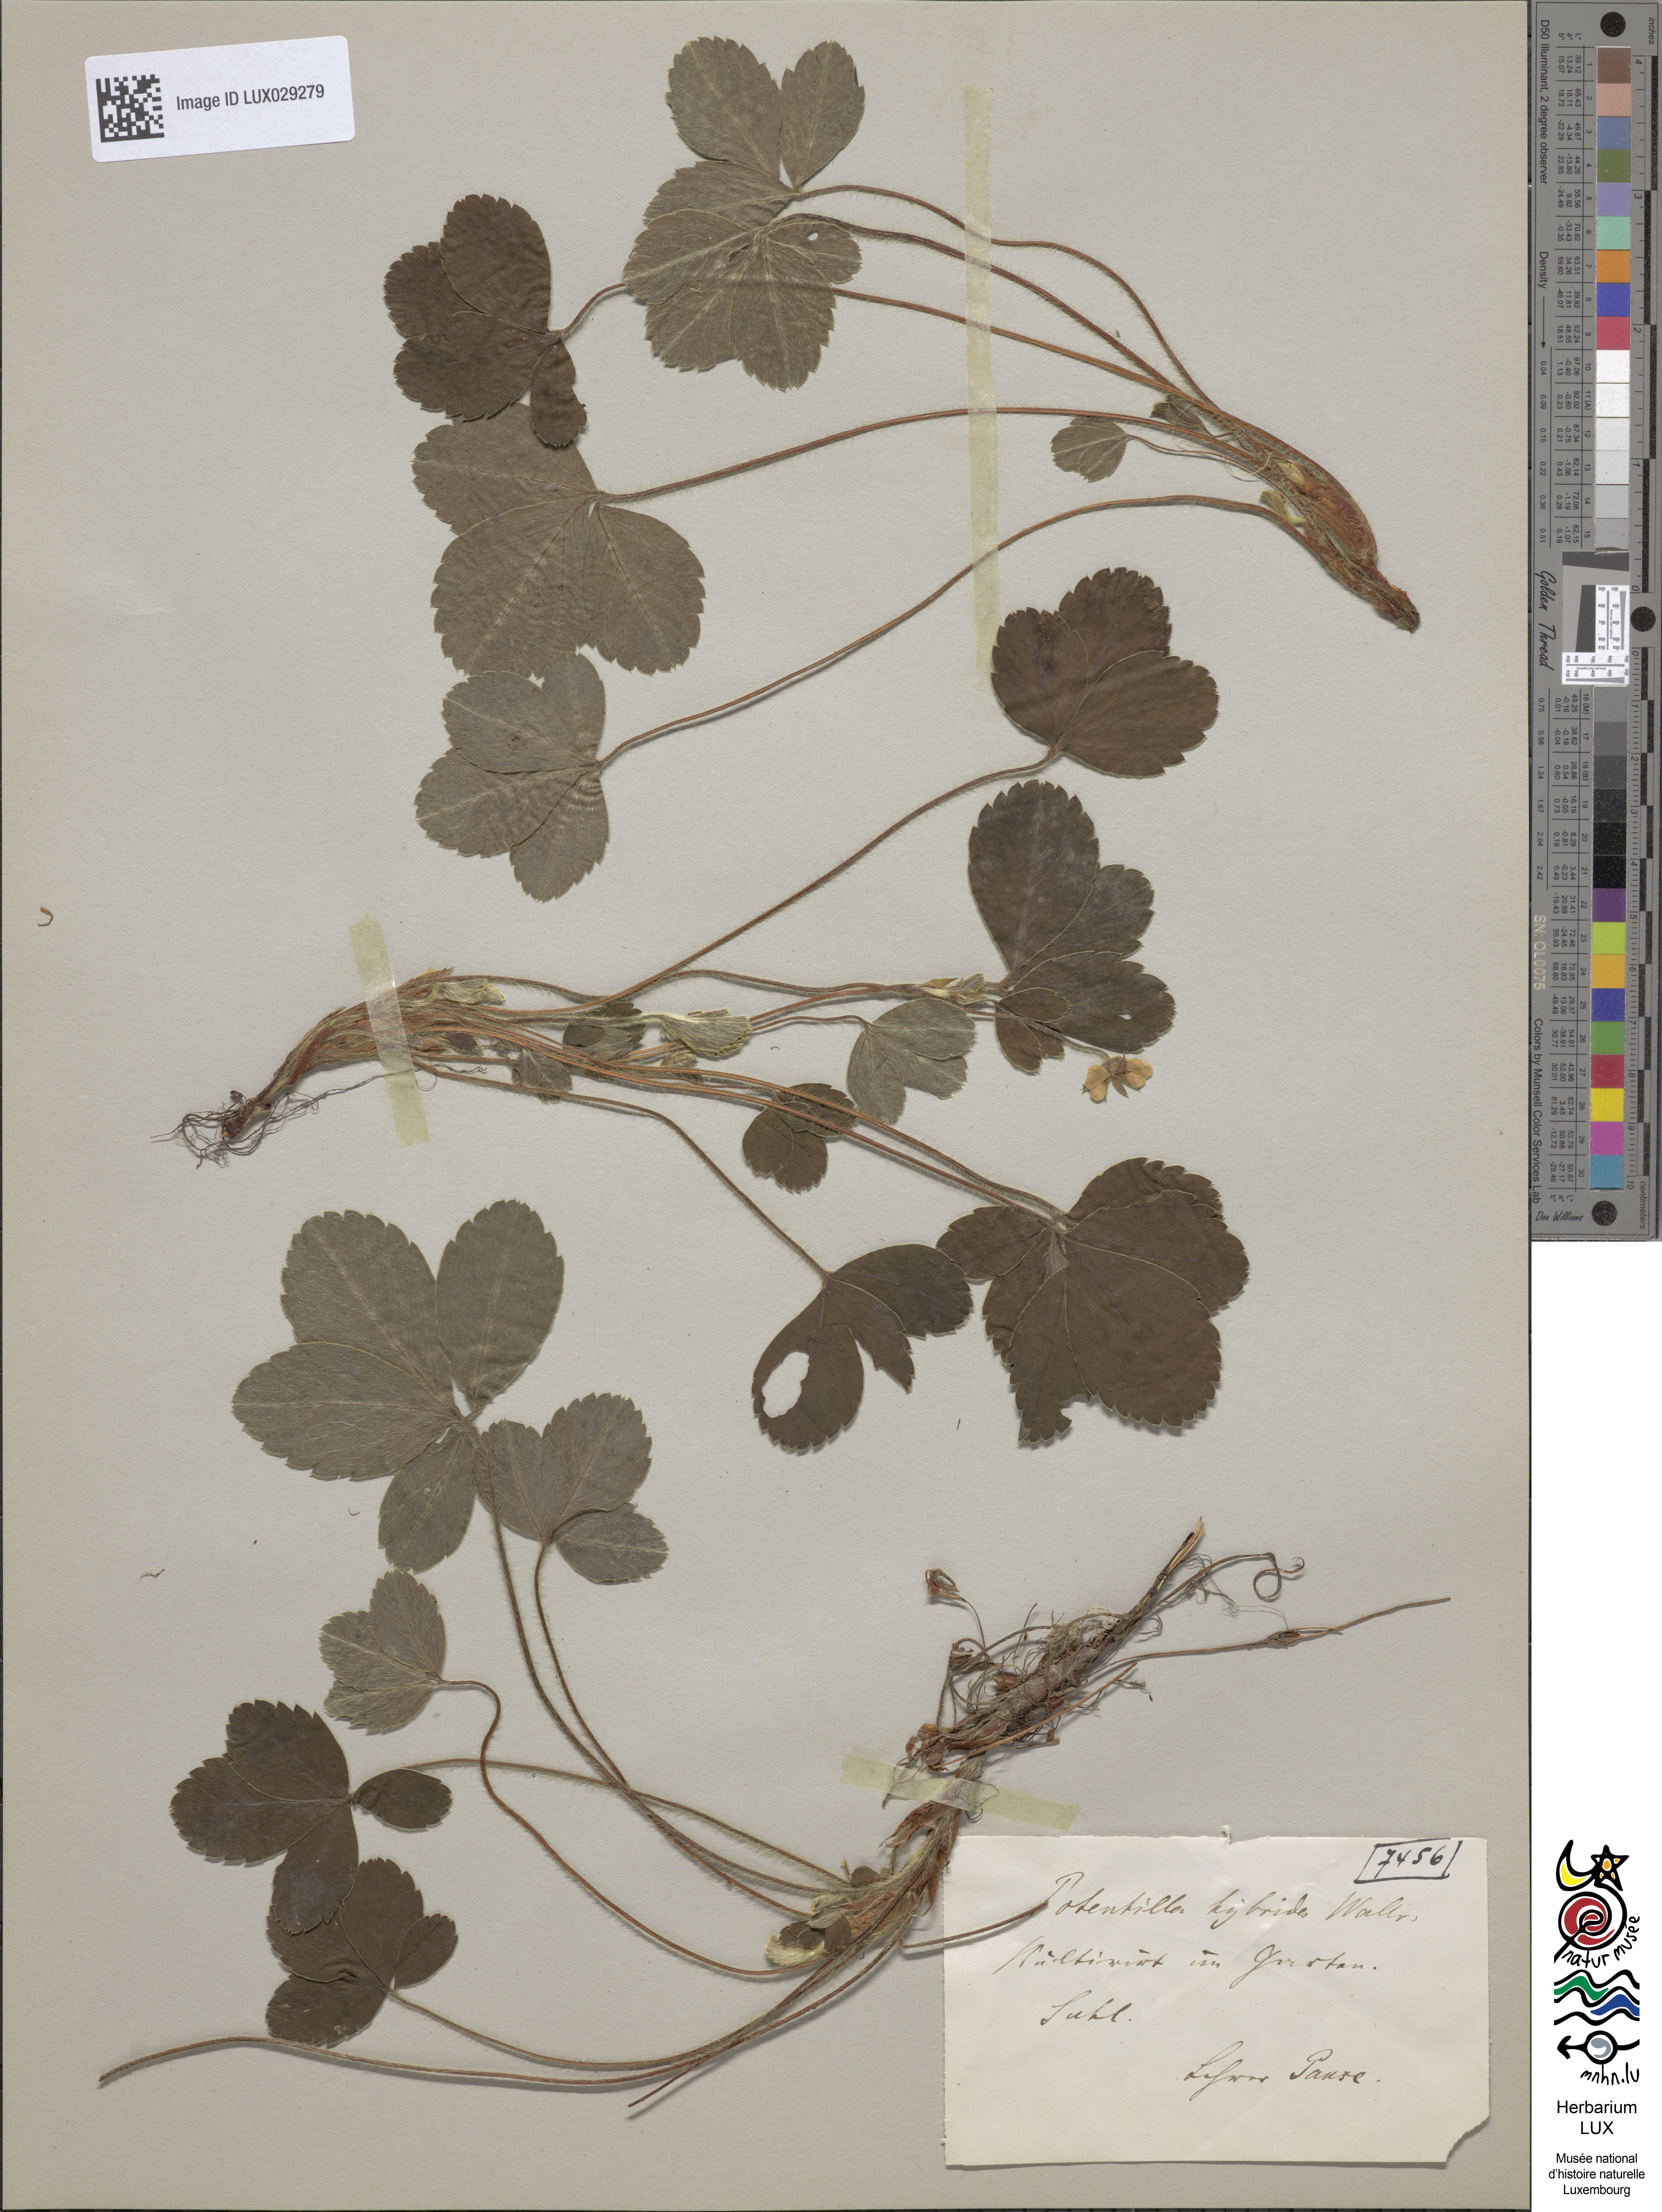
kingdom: Plantae
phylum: Tracheophyta
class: Magnoliopsida
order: Rosales
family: Rosaceae
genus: Potentilla
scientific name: Potentilla splendens
